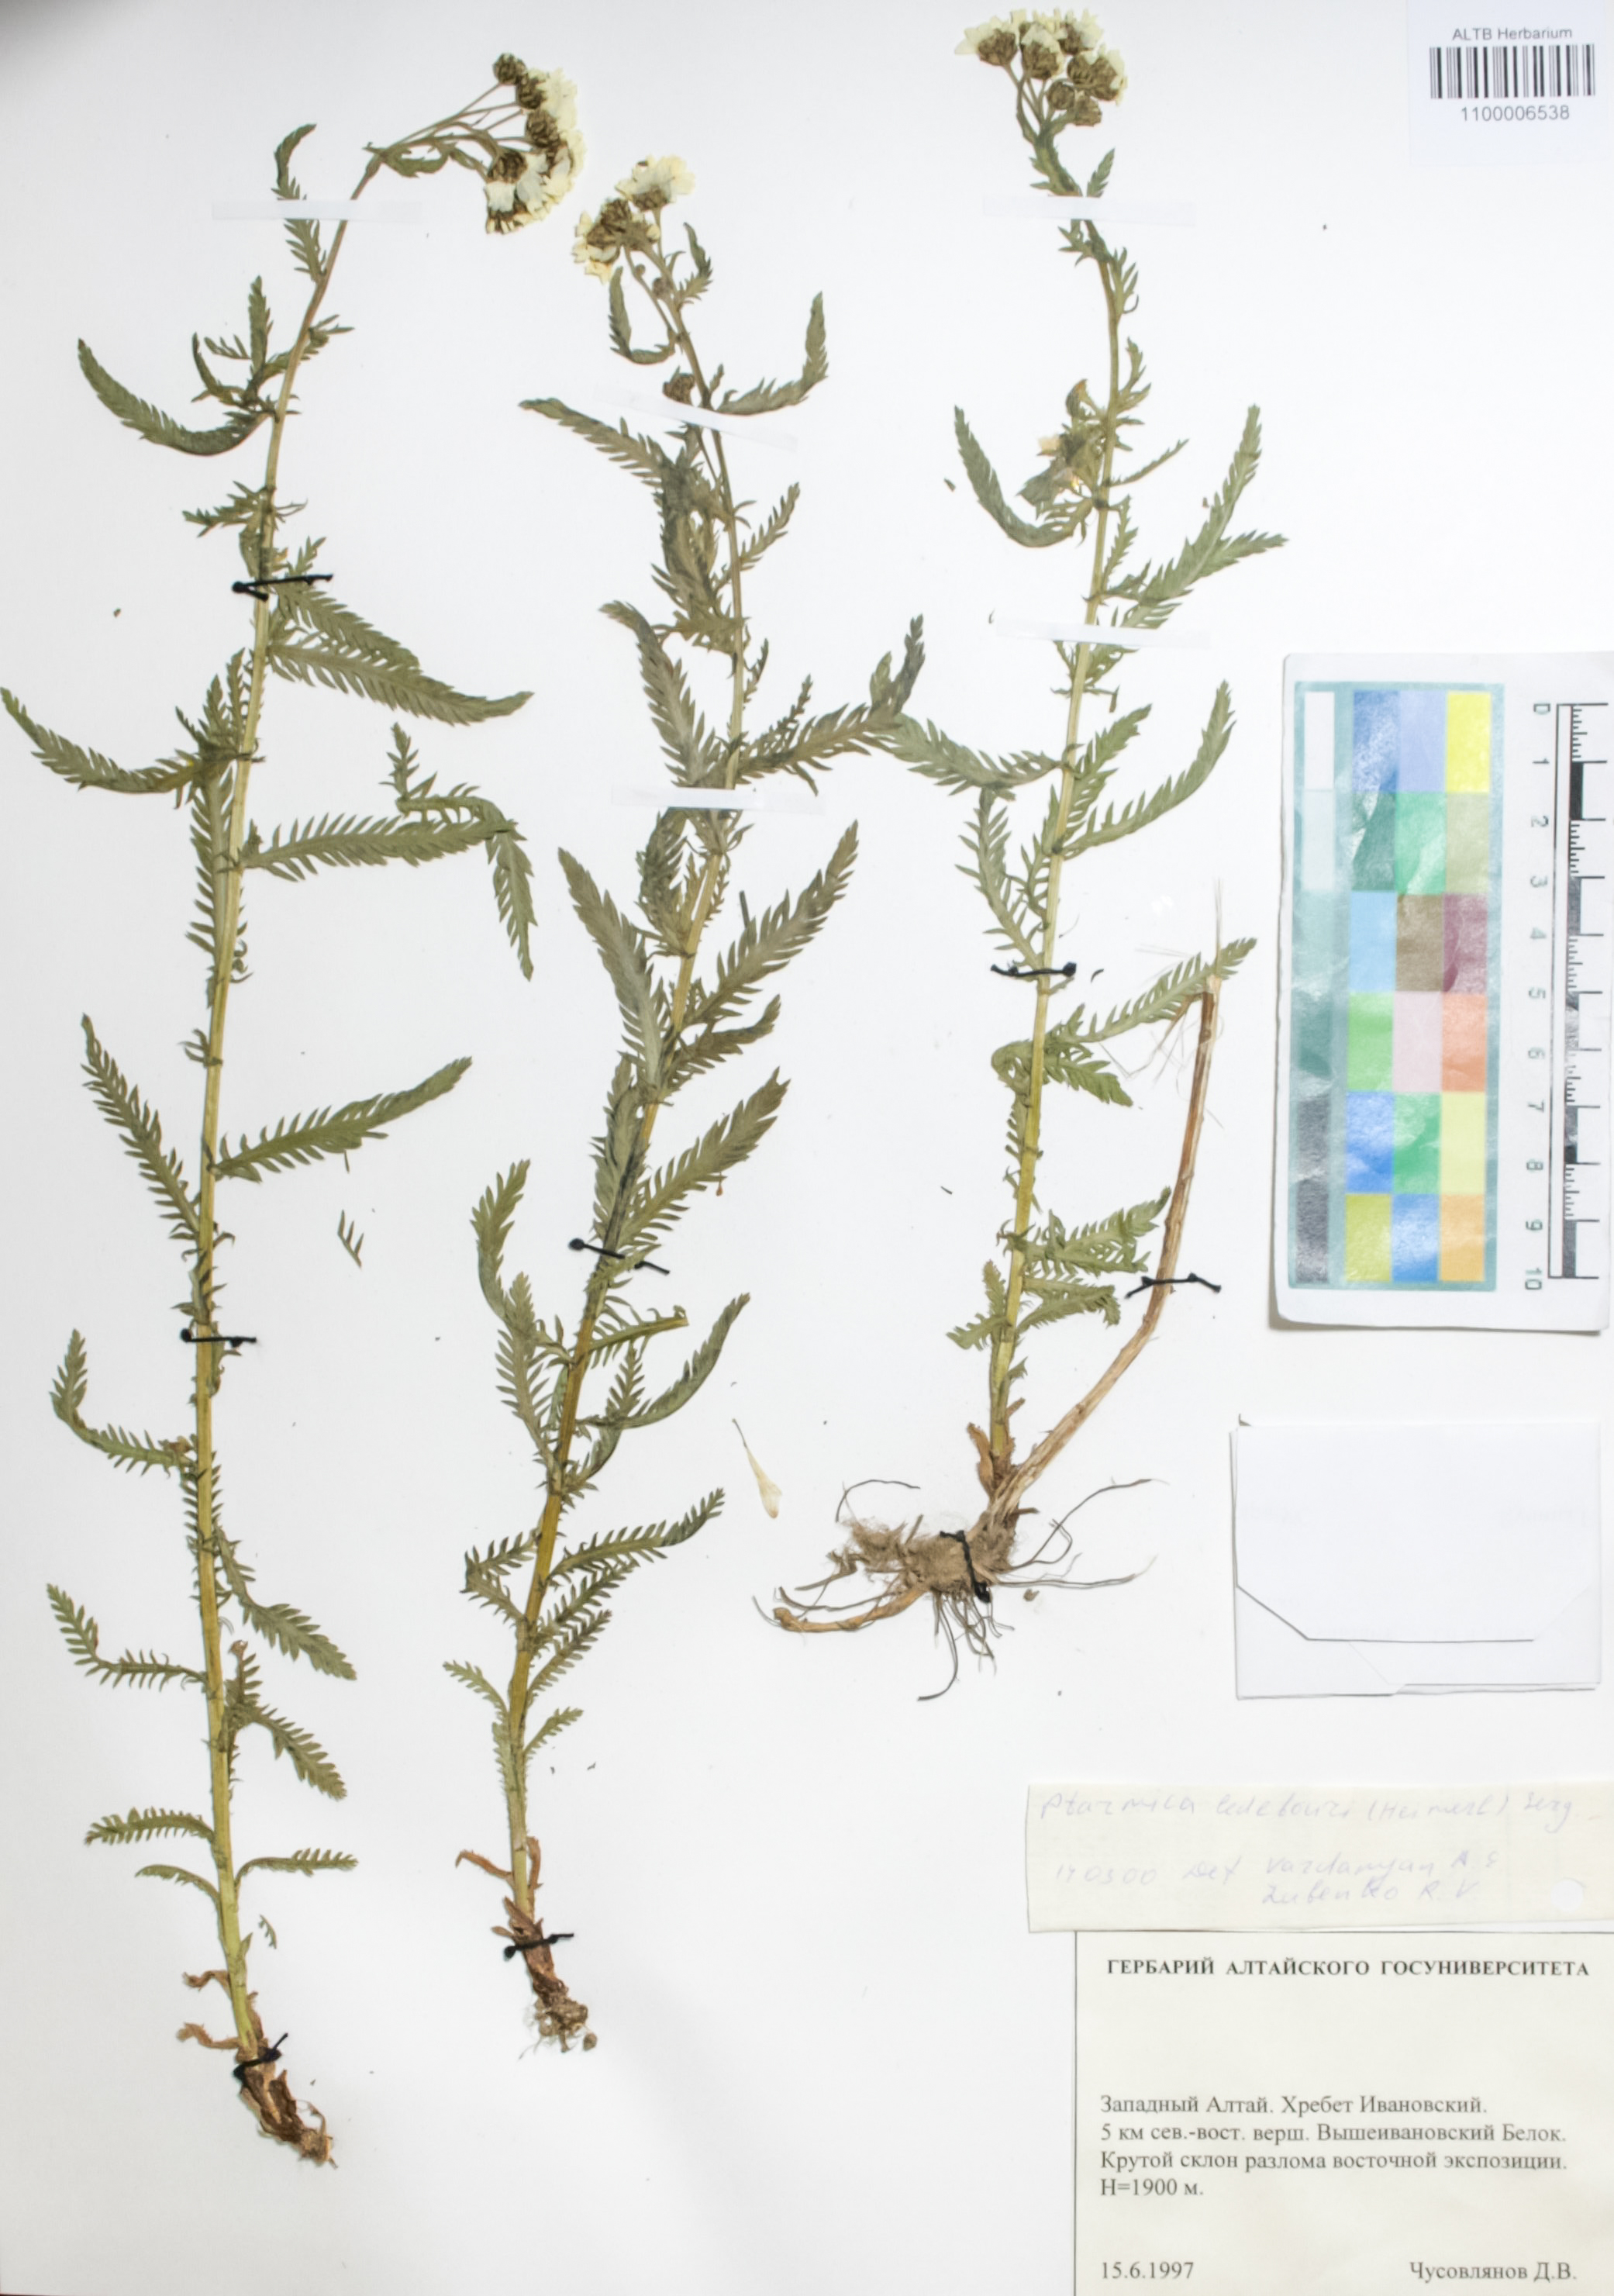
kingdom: Plantae
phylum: Tracheophyta
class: Magnoliopsida
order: Asterales
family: Asteraceae
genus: Achillea
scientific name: Achillea ledebourii
